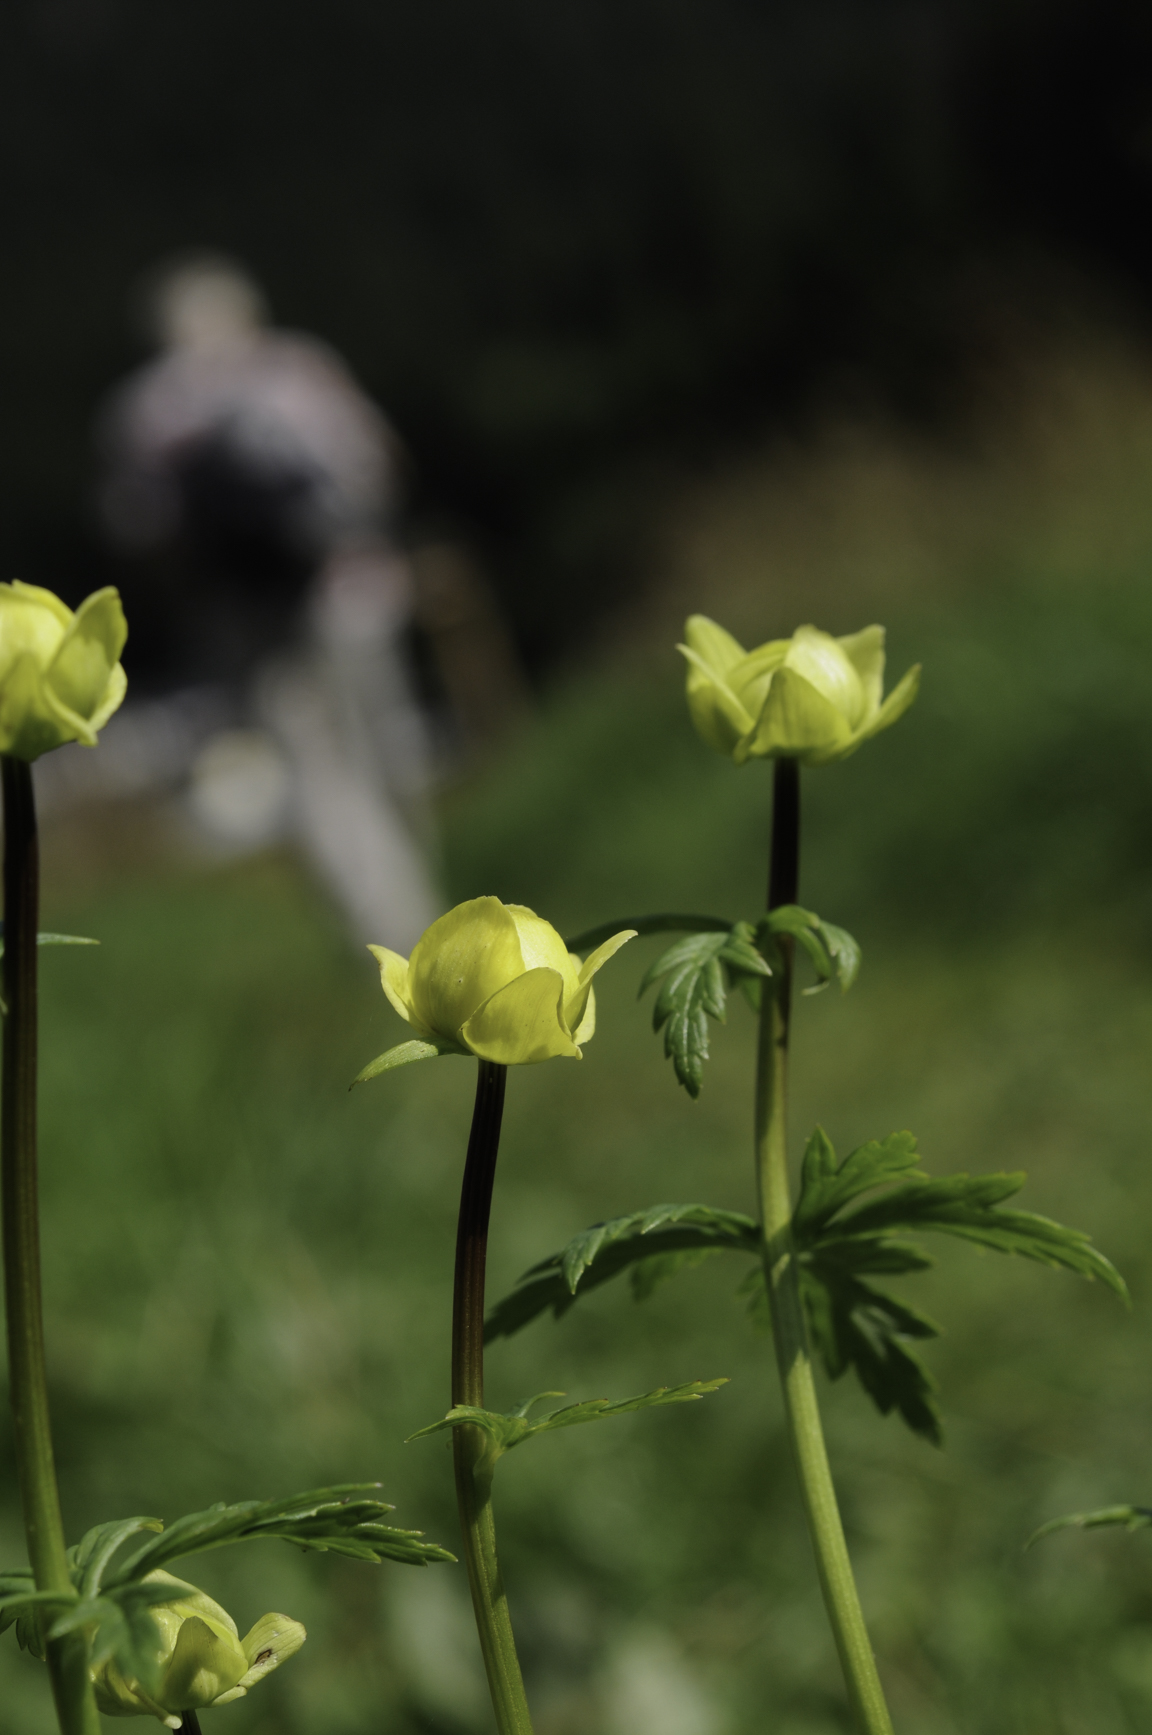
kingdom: Plantae
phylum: Tracheophyta
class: Magnoliopsida
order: Ranunculales
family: Ranunculaceae
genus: Trollius
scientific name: Trollius europaeus
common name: European globeflower
